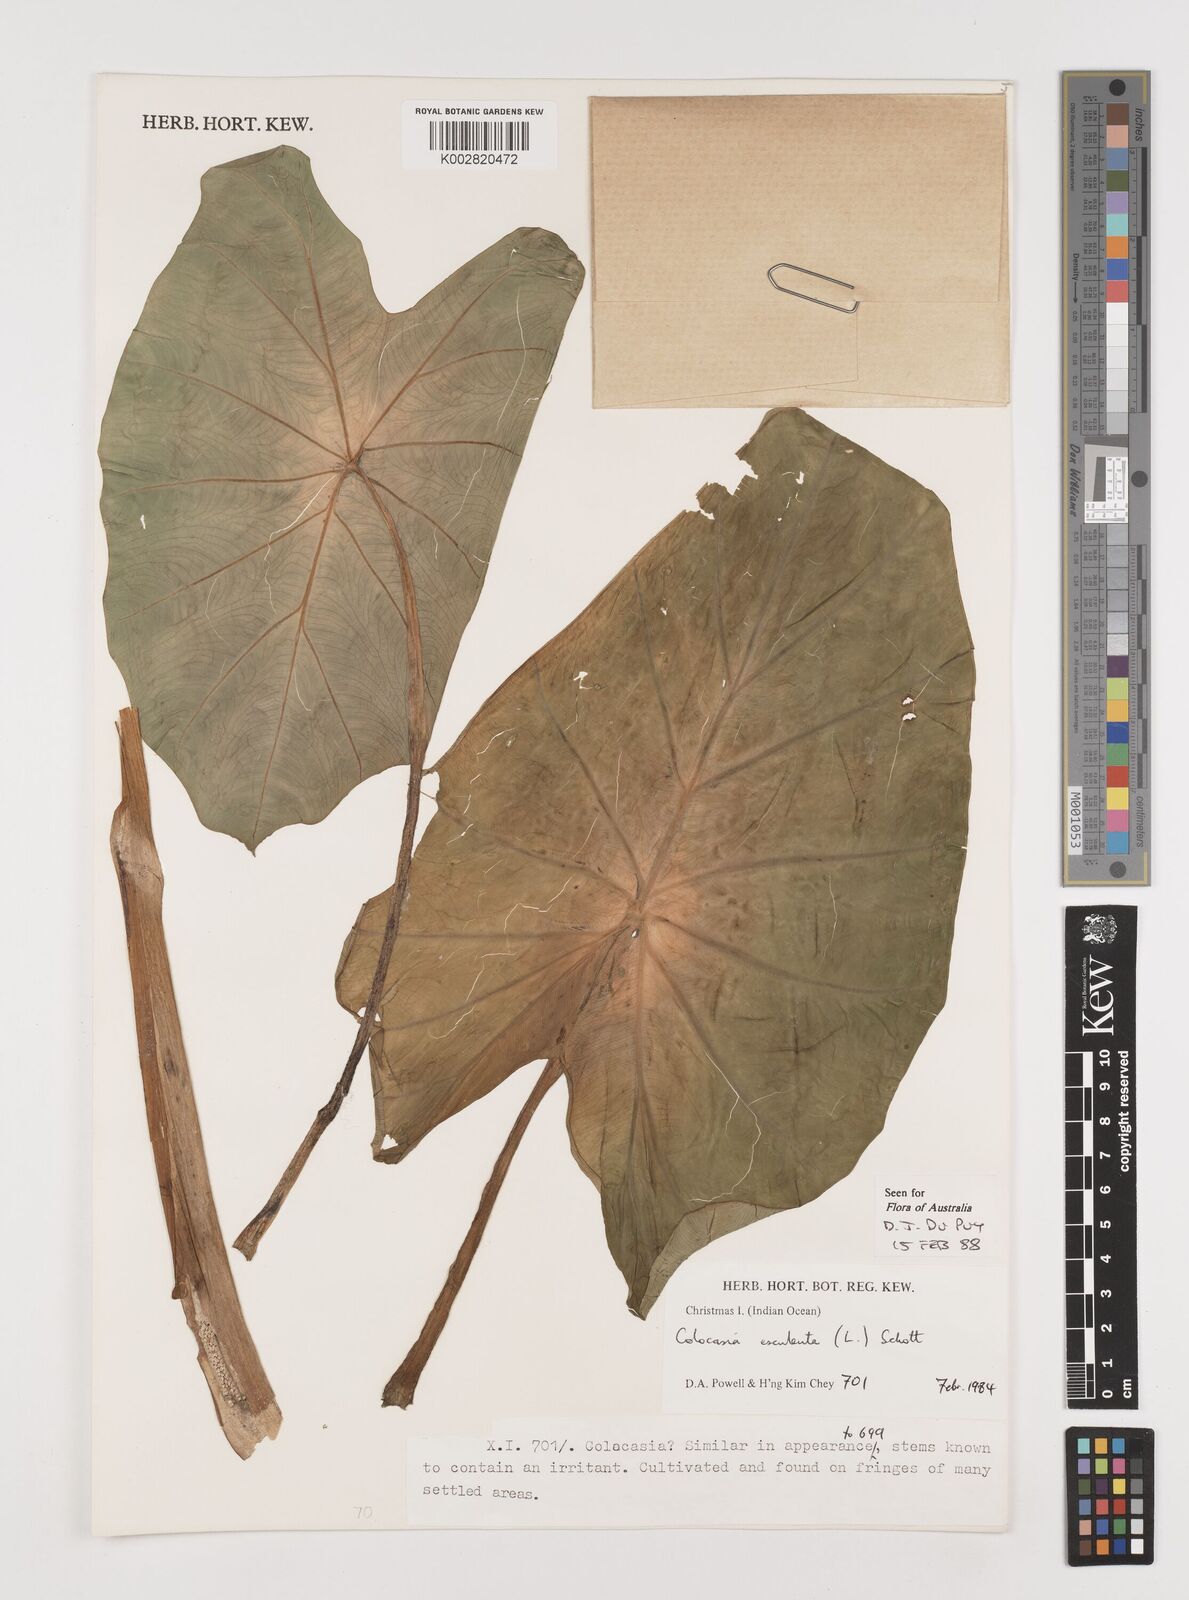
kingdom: Plantae
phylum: Tracheophyta
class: Liliopsida
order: Alismatales
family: Araceae
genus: Colocasia
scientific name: Colocasia esculenta
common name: Taro
